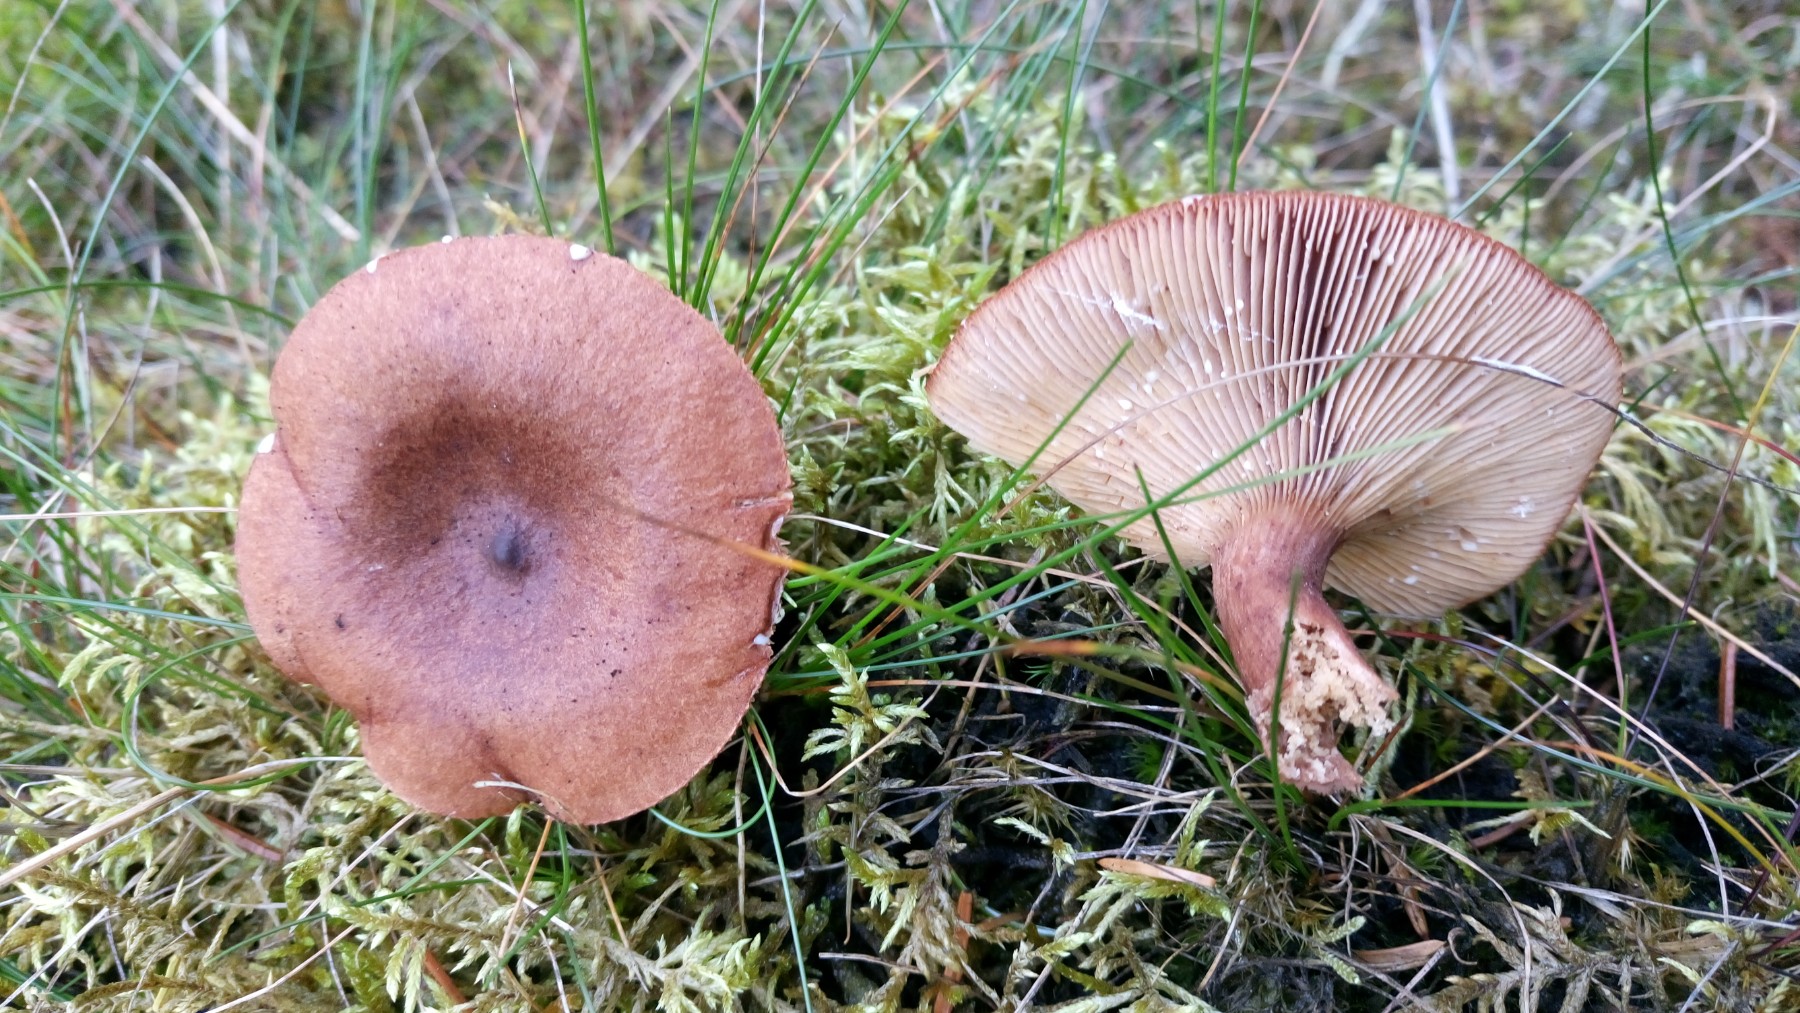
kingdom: Fungi
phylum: Basidiomycota
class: Agaricomycetes
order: Russulales
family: Russulaceae
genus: Lactarius
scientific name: Lactarius rufus
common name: rødbrun mælkehat
